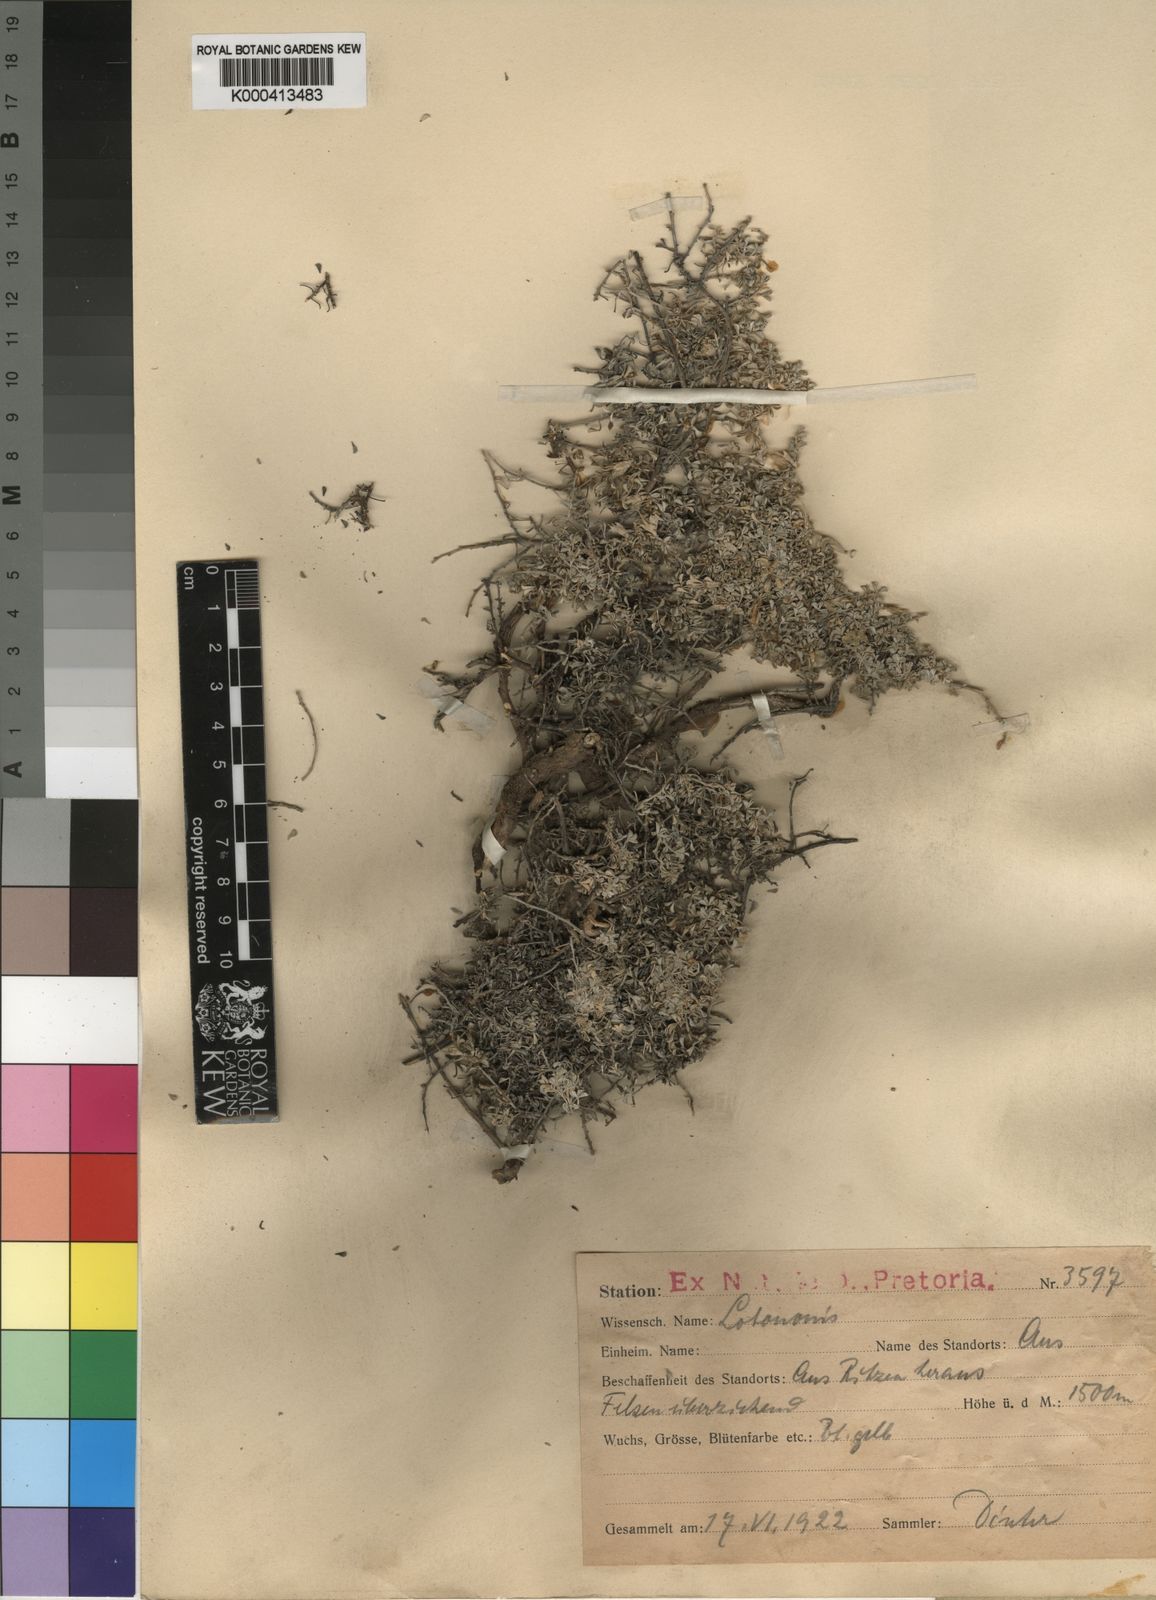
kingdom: Plantae
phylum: Tracheophyta
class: Magnoliopsida
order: Fabales
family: Fabaceae
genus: Leobordea
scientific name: Leobordea mirabilis
